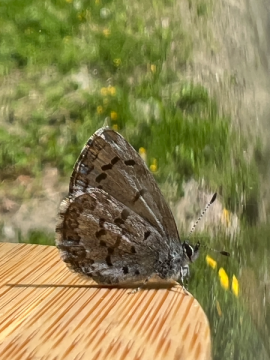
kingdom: Animalia
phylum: Arthropoda
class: Insecta
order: Lepidoptera
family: Lycaenidae
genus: Celastrina
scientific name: Celastrina lucia
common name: Northern Spring Azure
